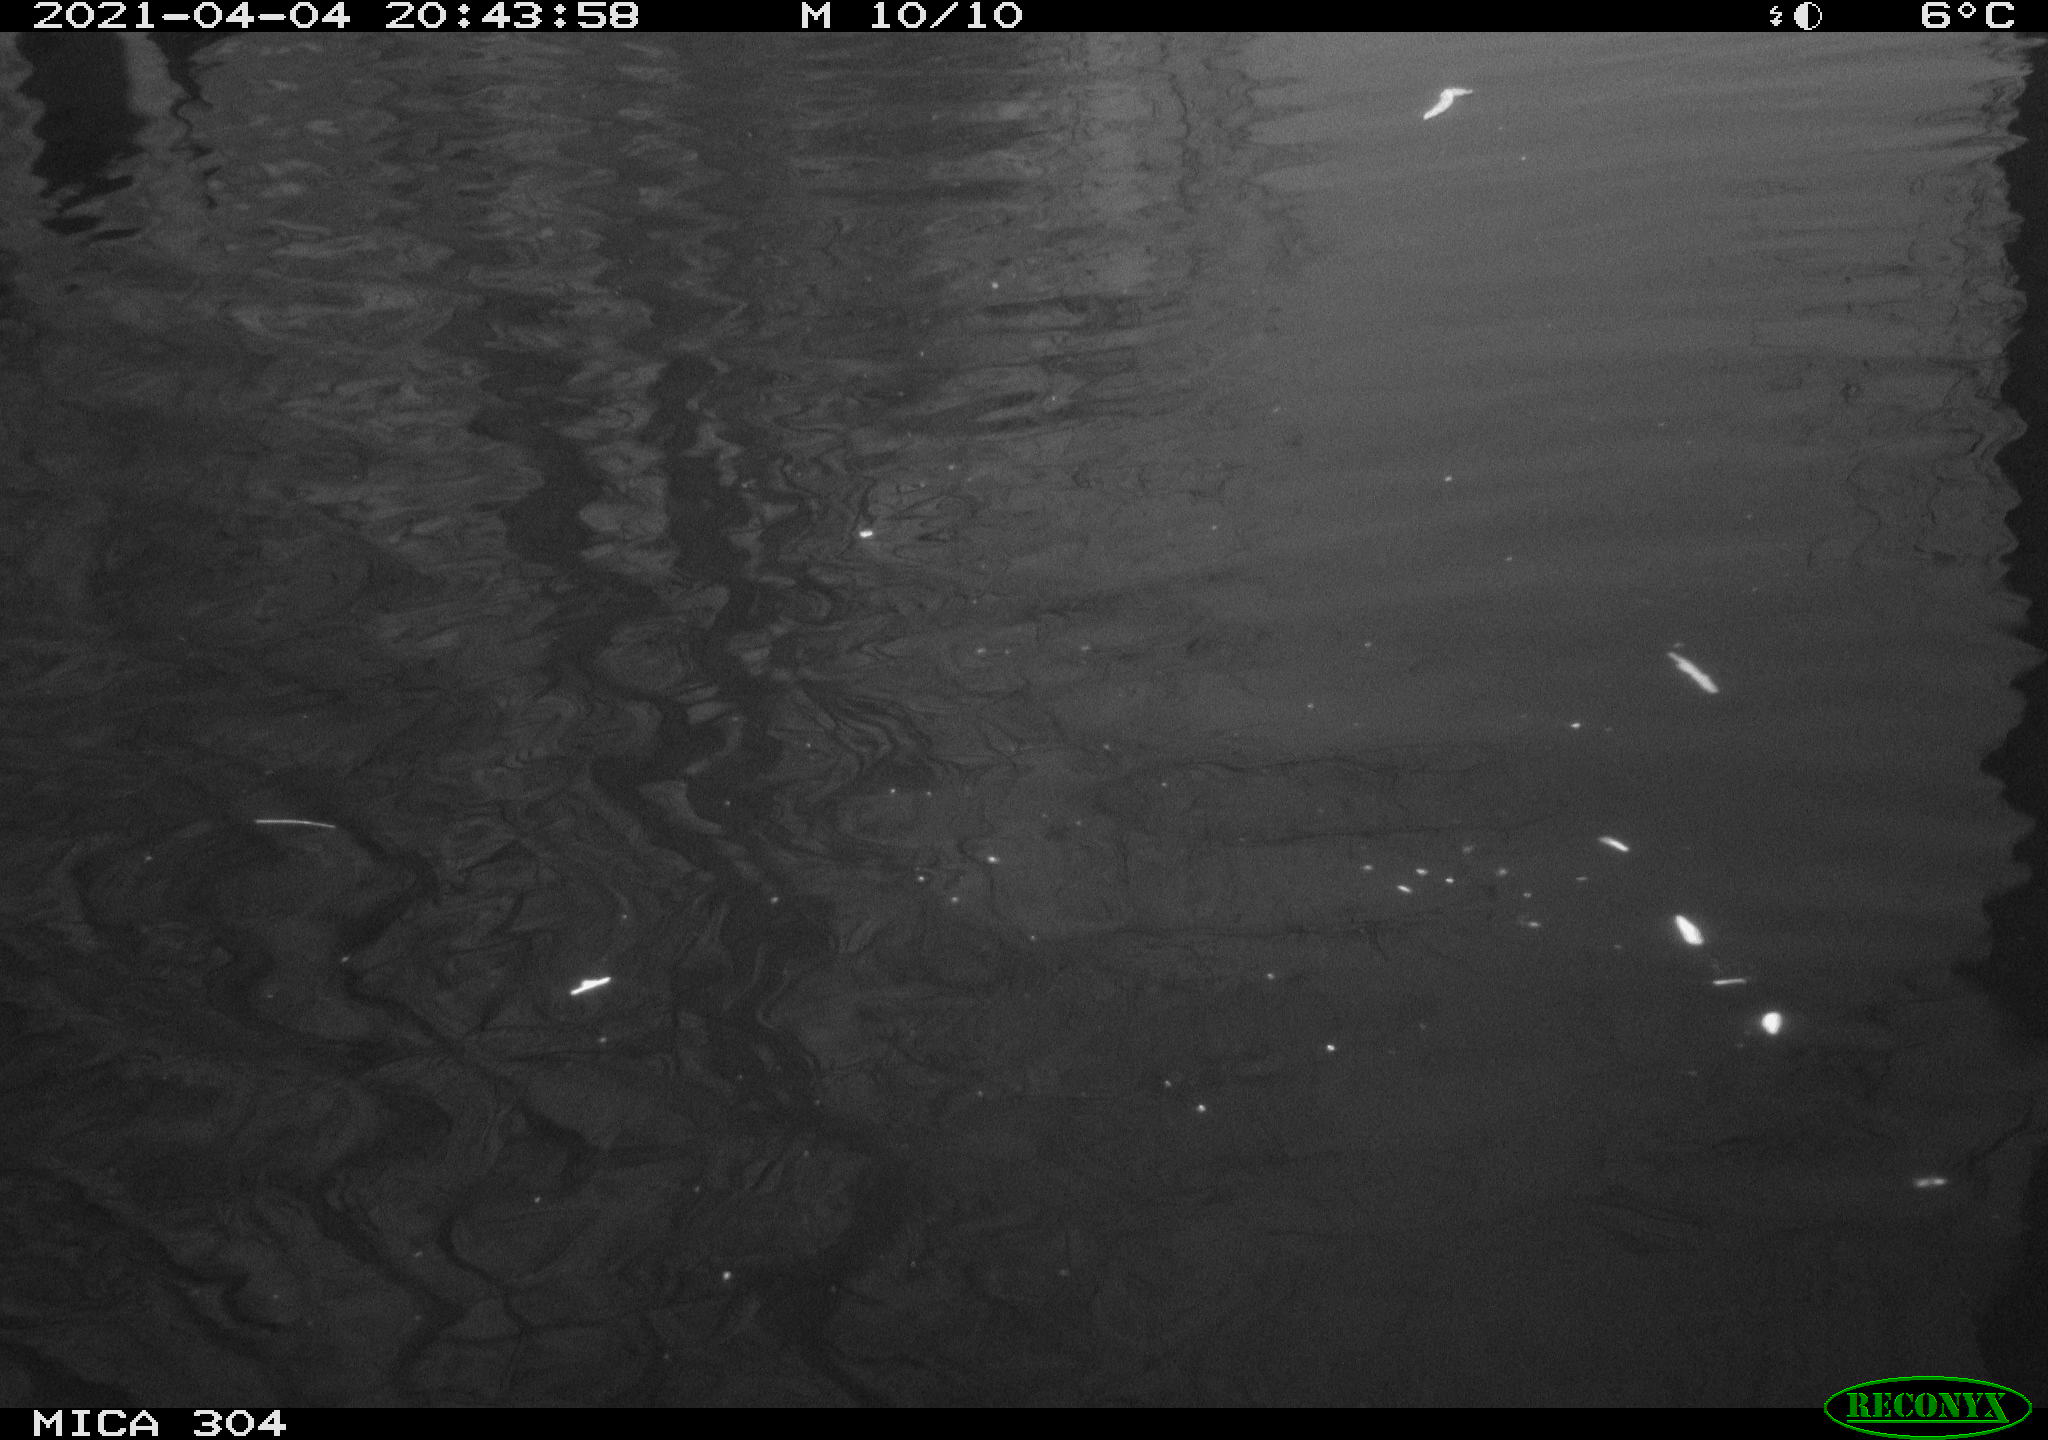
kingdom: Animalia
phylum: Chordata
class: Aves
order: Anseriformes
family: Anatidae
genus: Anas
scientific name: Anas
